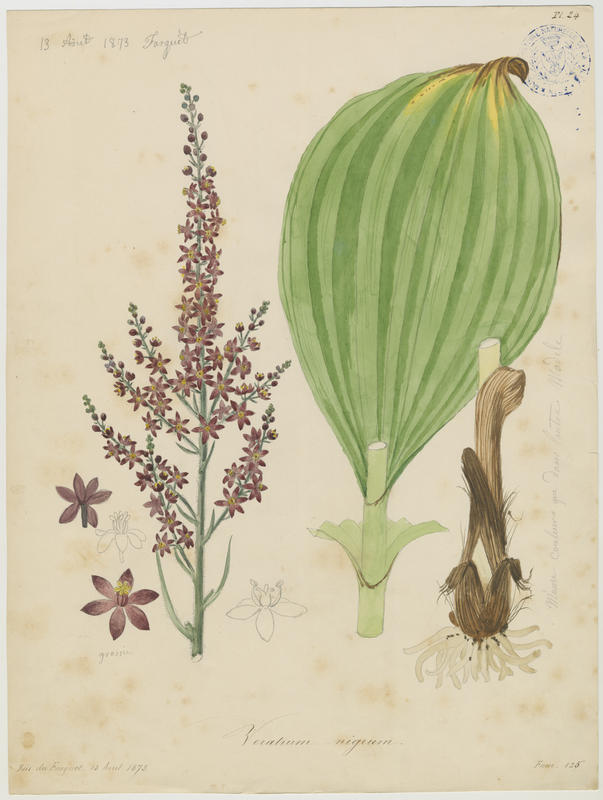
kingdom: Plantae
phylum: Tracheophyta
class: Liliopsida
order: Liliales
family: Melanthiaceae
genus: Veratrum
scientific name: Veratrum nigrum
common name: Black veratrum
